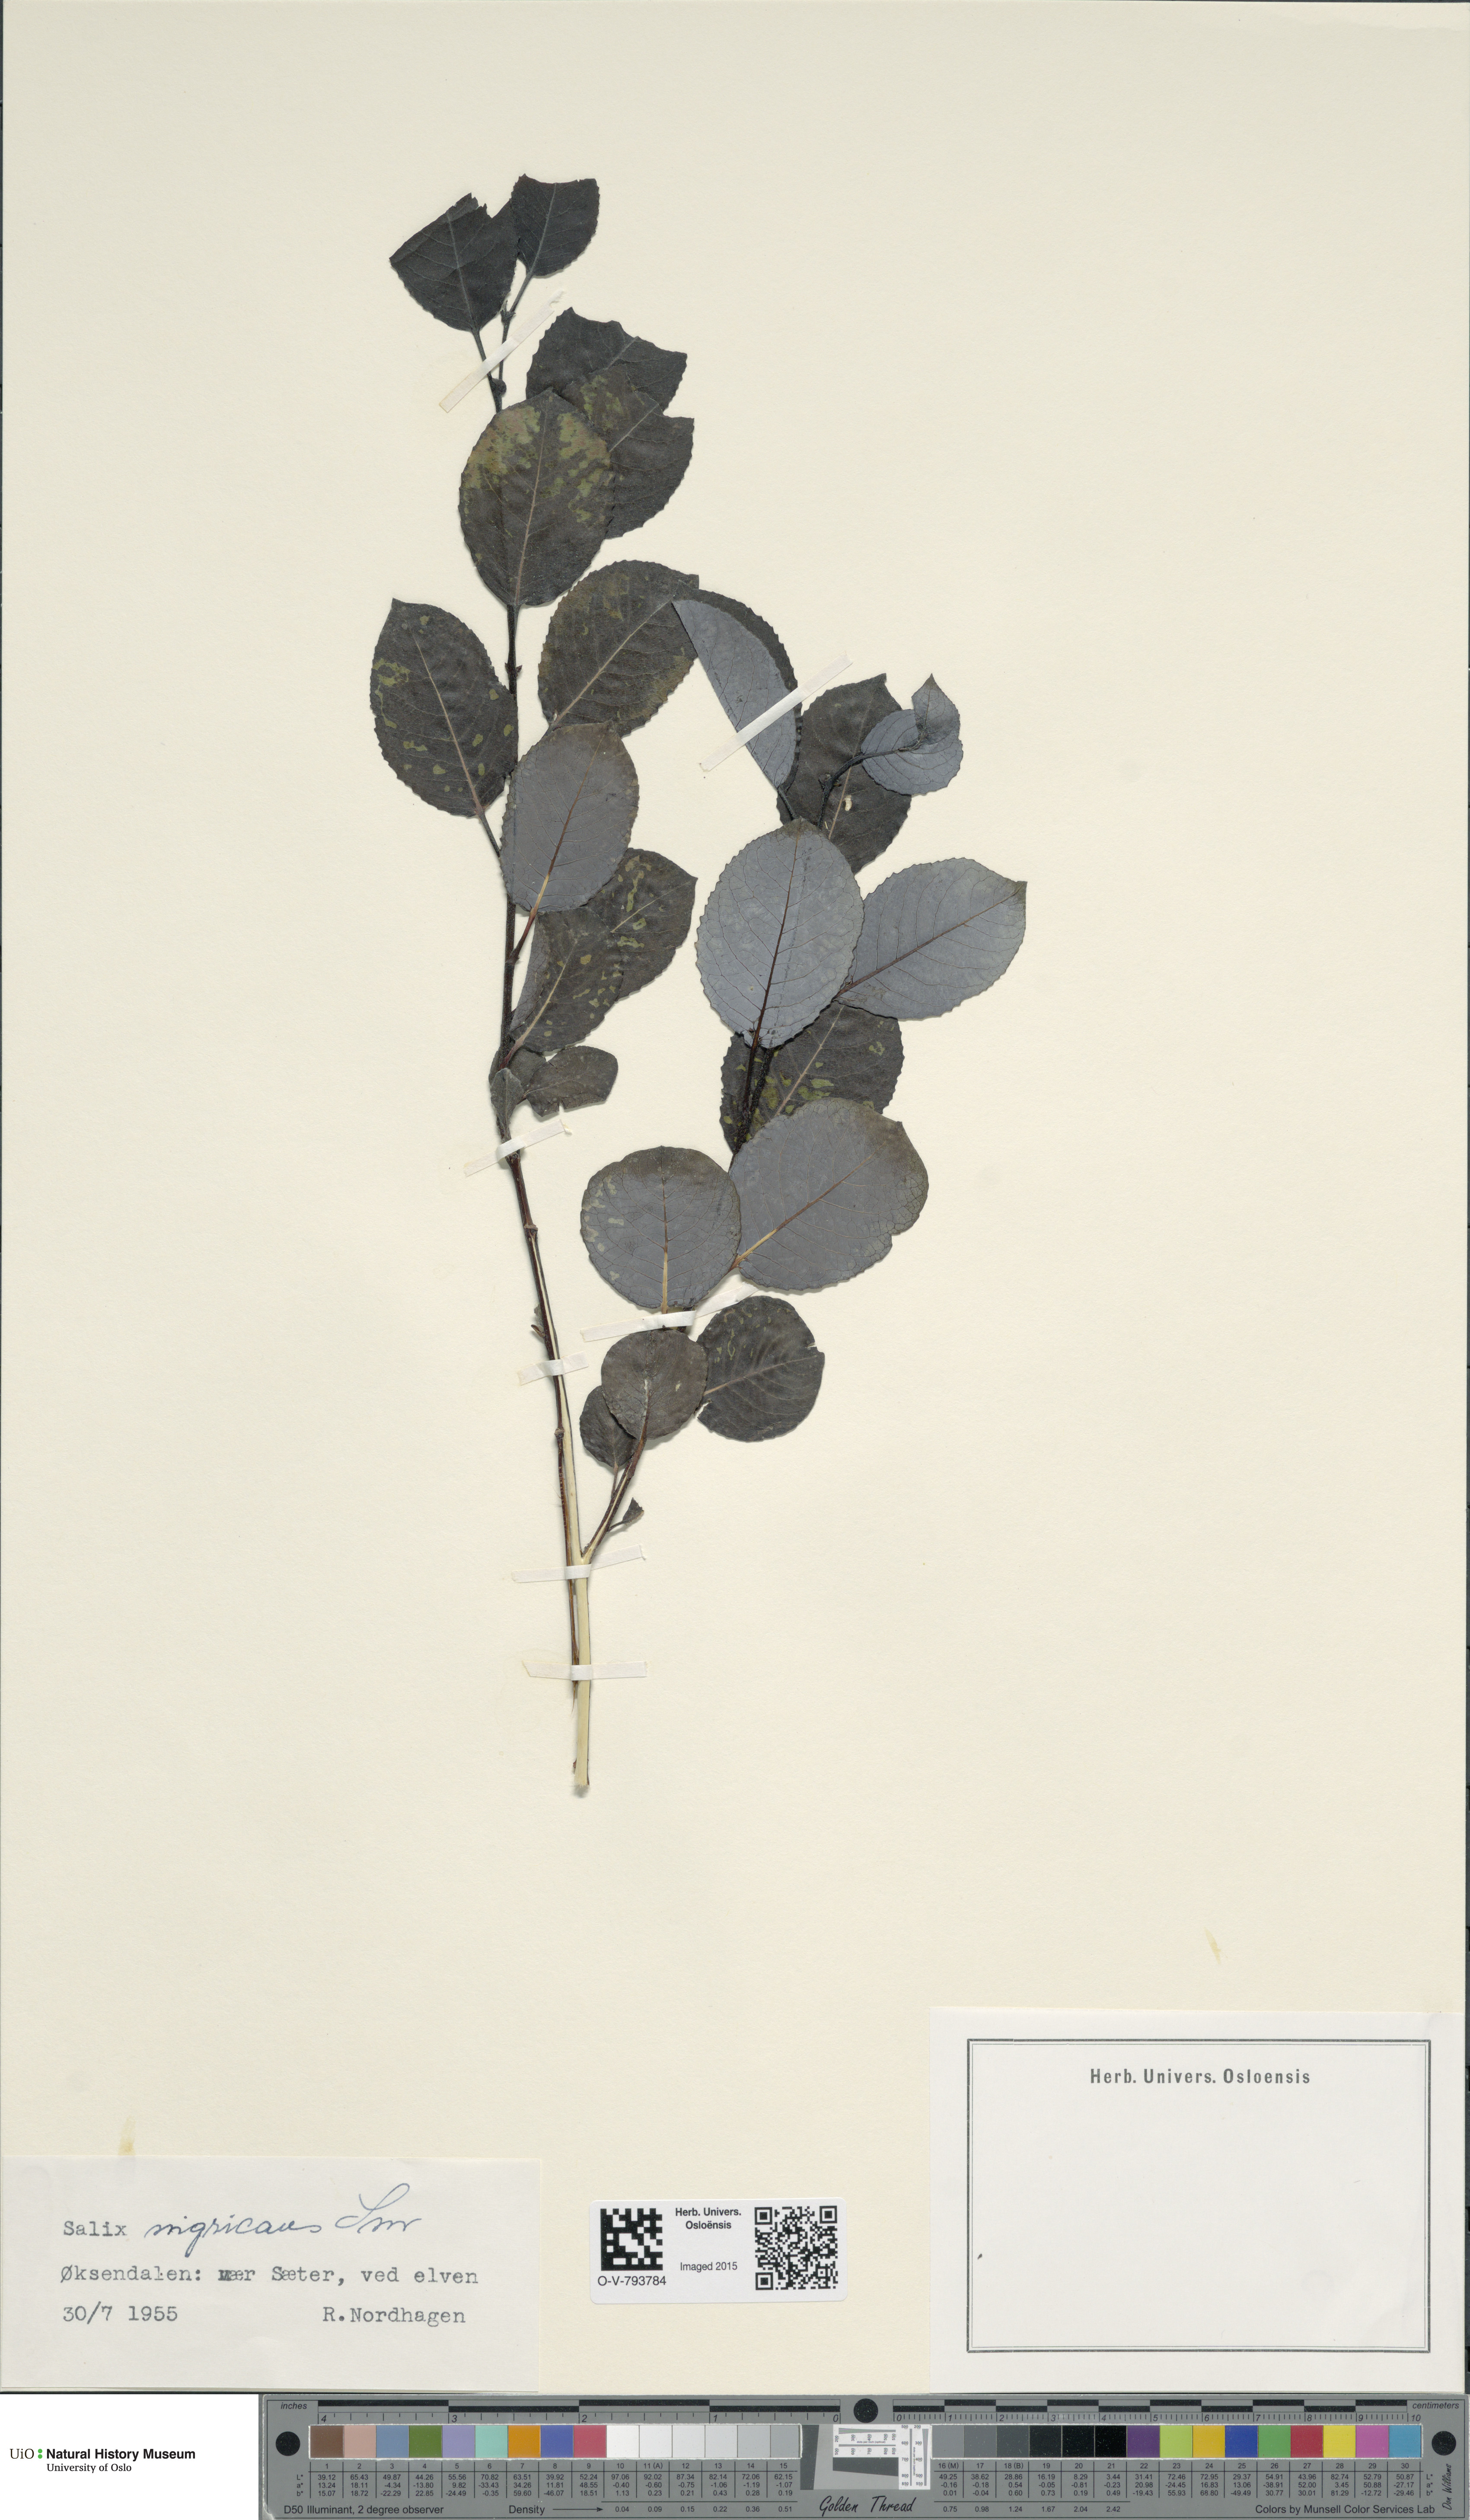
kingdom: Plantae
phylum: Tracheophyta
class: Magnoliopsida
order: Malpighiales
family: Salicaceae
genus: Salix
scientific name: Salix myrsinifolia
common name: Dark-leaved willow
